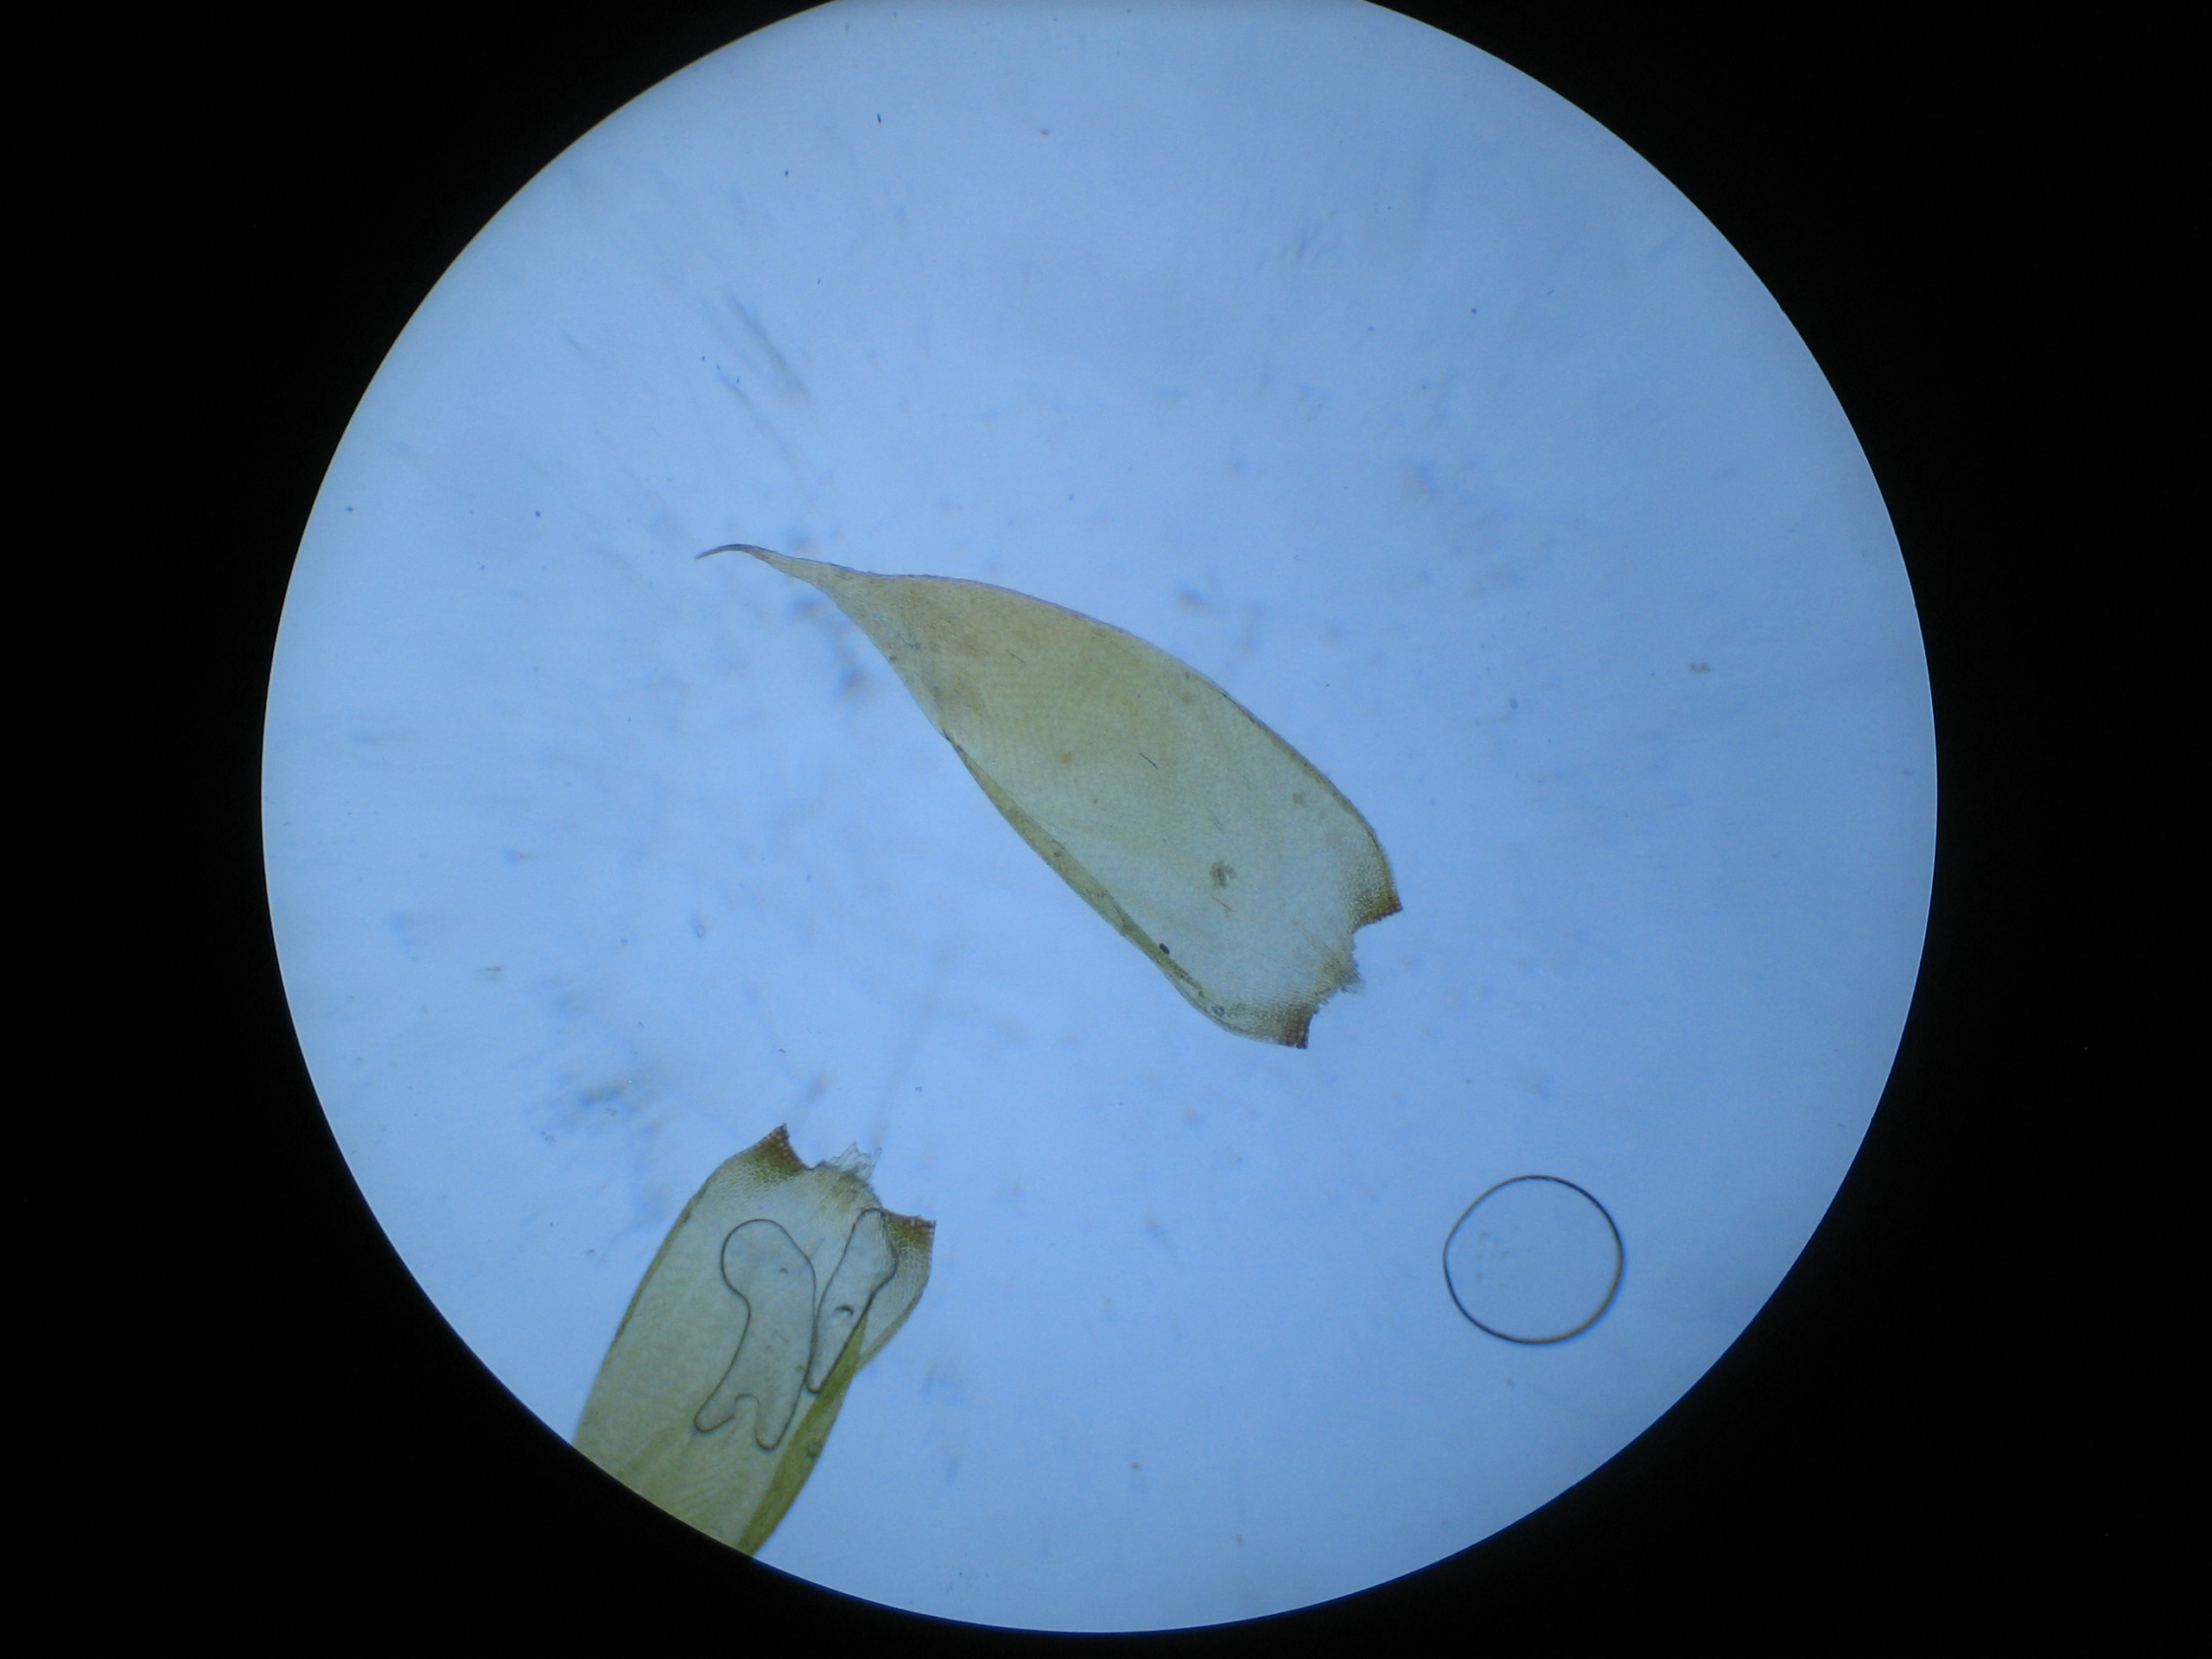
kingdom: Plantae
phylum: Bryophyta
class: Bryopsida
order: Hypnales
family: Hypnaceae
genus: Hypnum
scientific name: Hypnum cupressiforme
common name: Almindelig cypresmos
